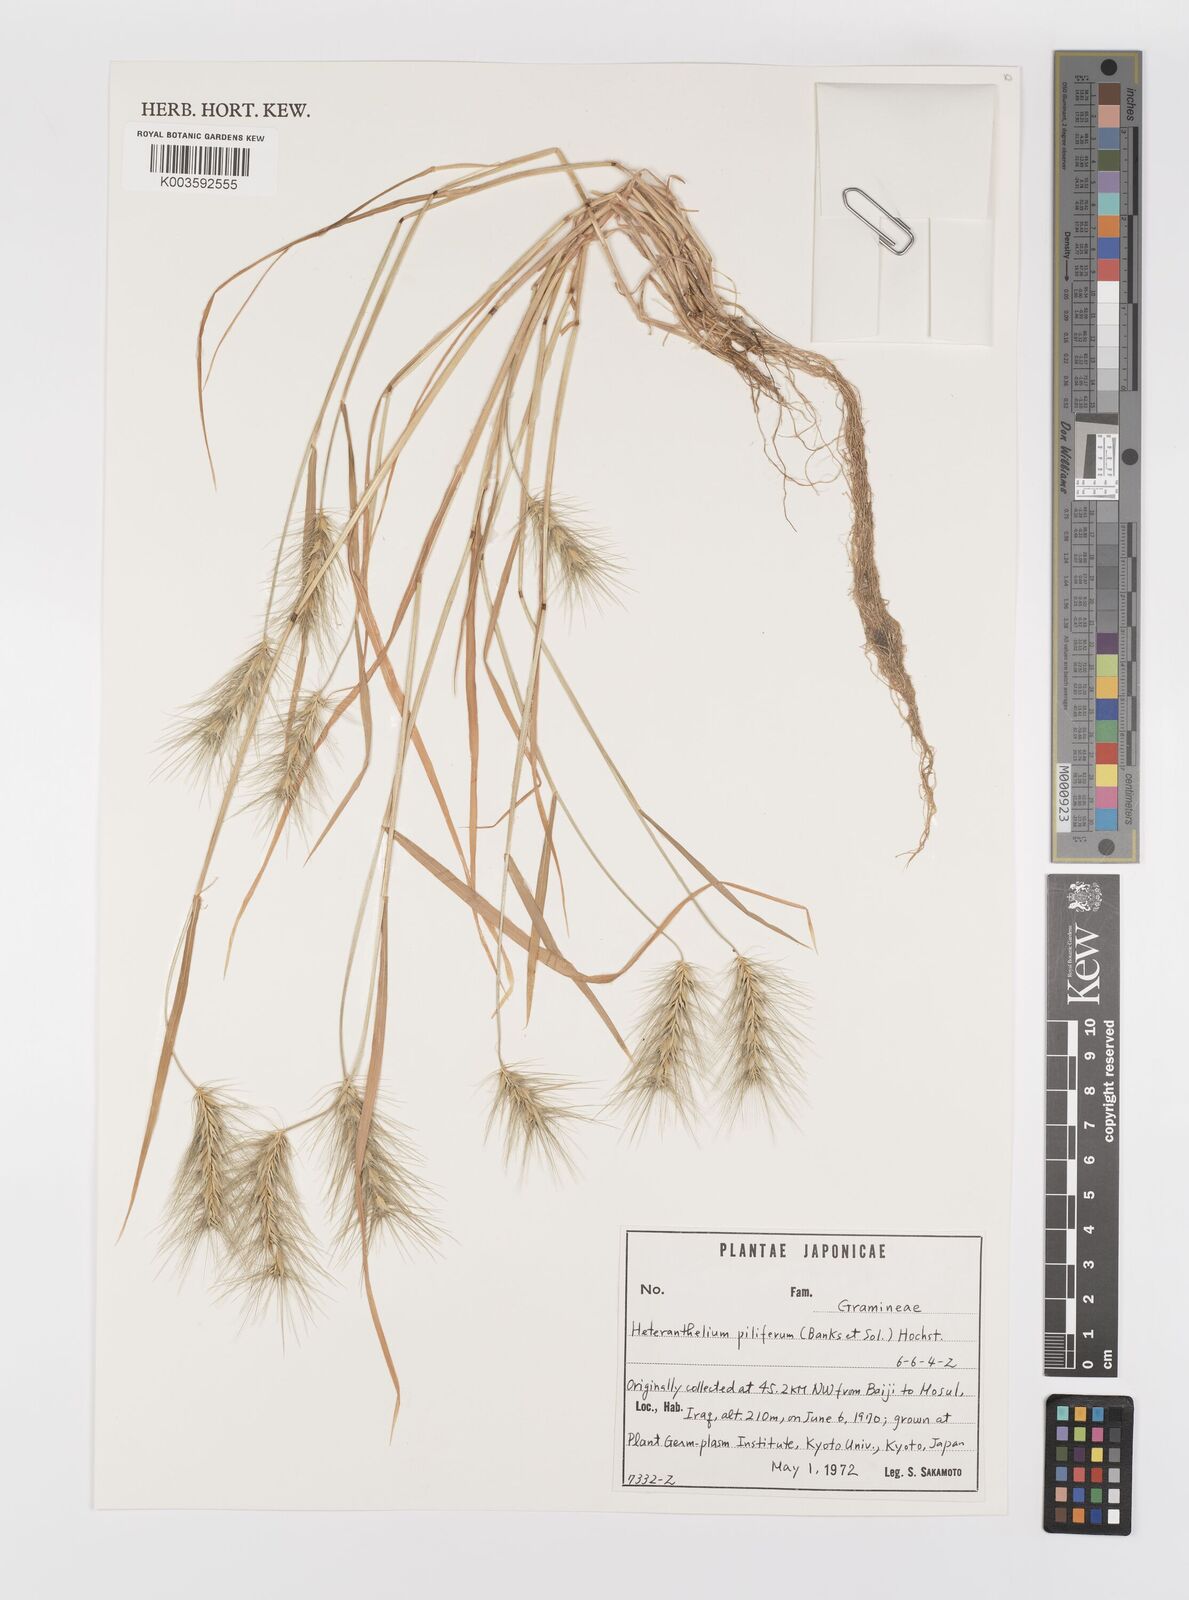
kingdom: Plantae
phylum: Tracheophyta
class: Liliopsida
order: Poales
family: Poaceae
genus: Heteranthelium
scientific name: Heteranthelium piliferum
